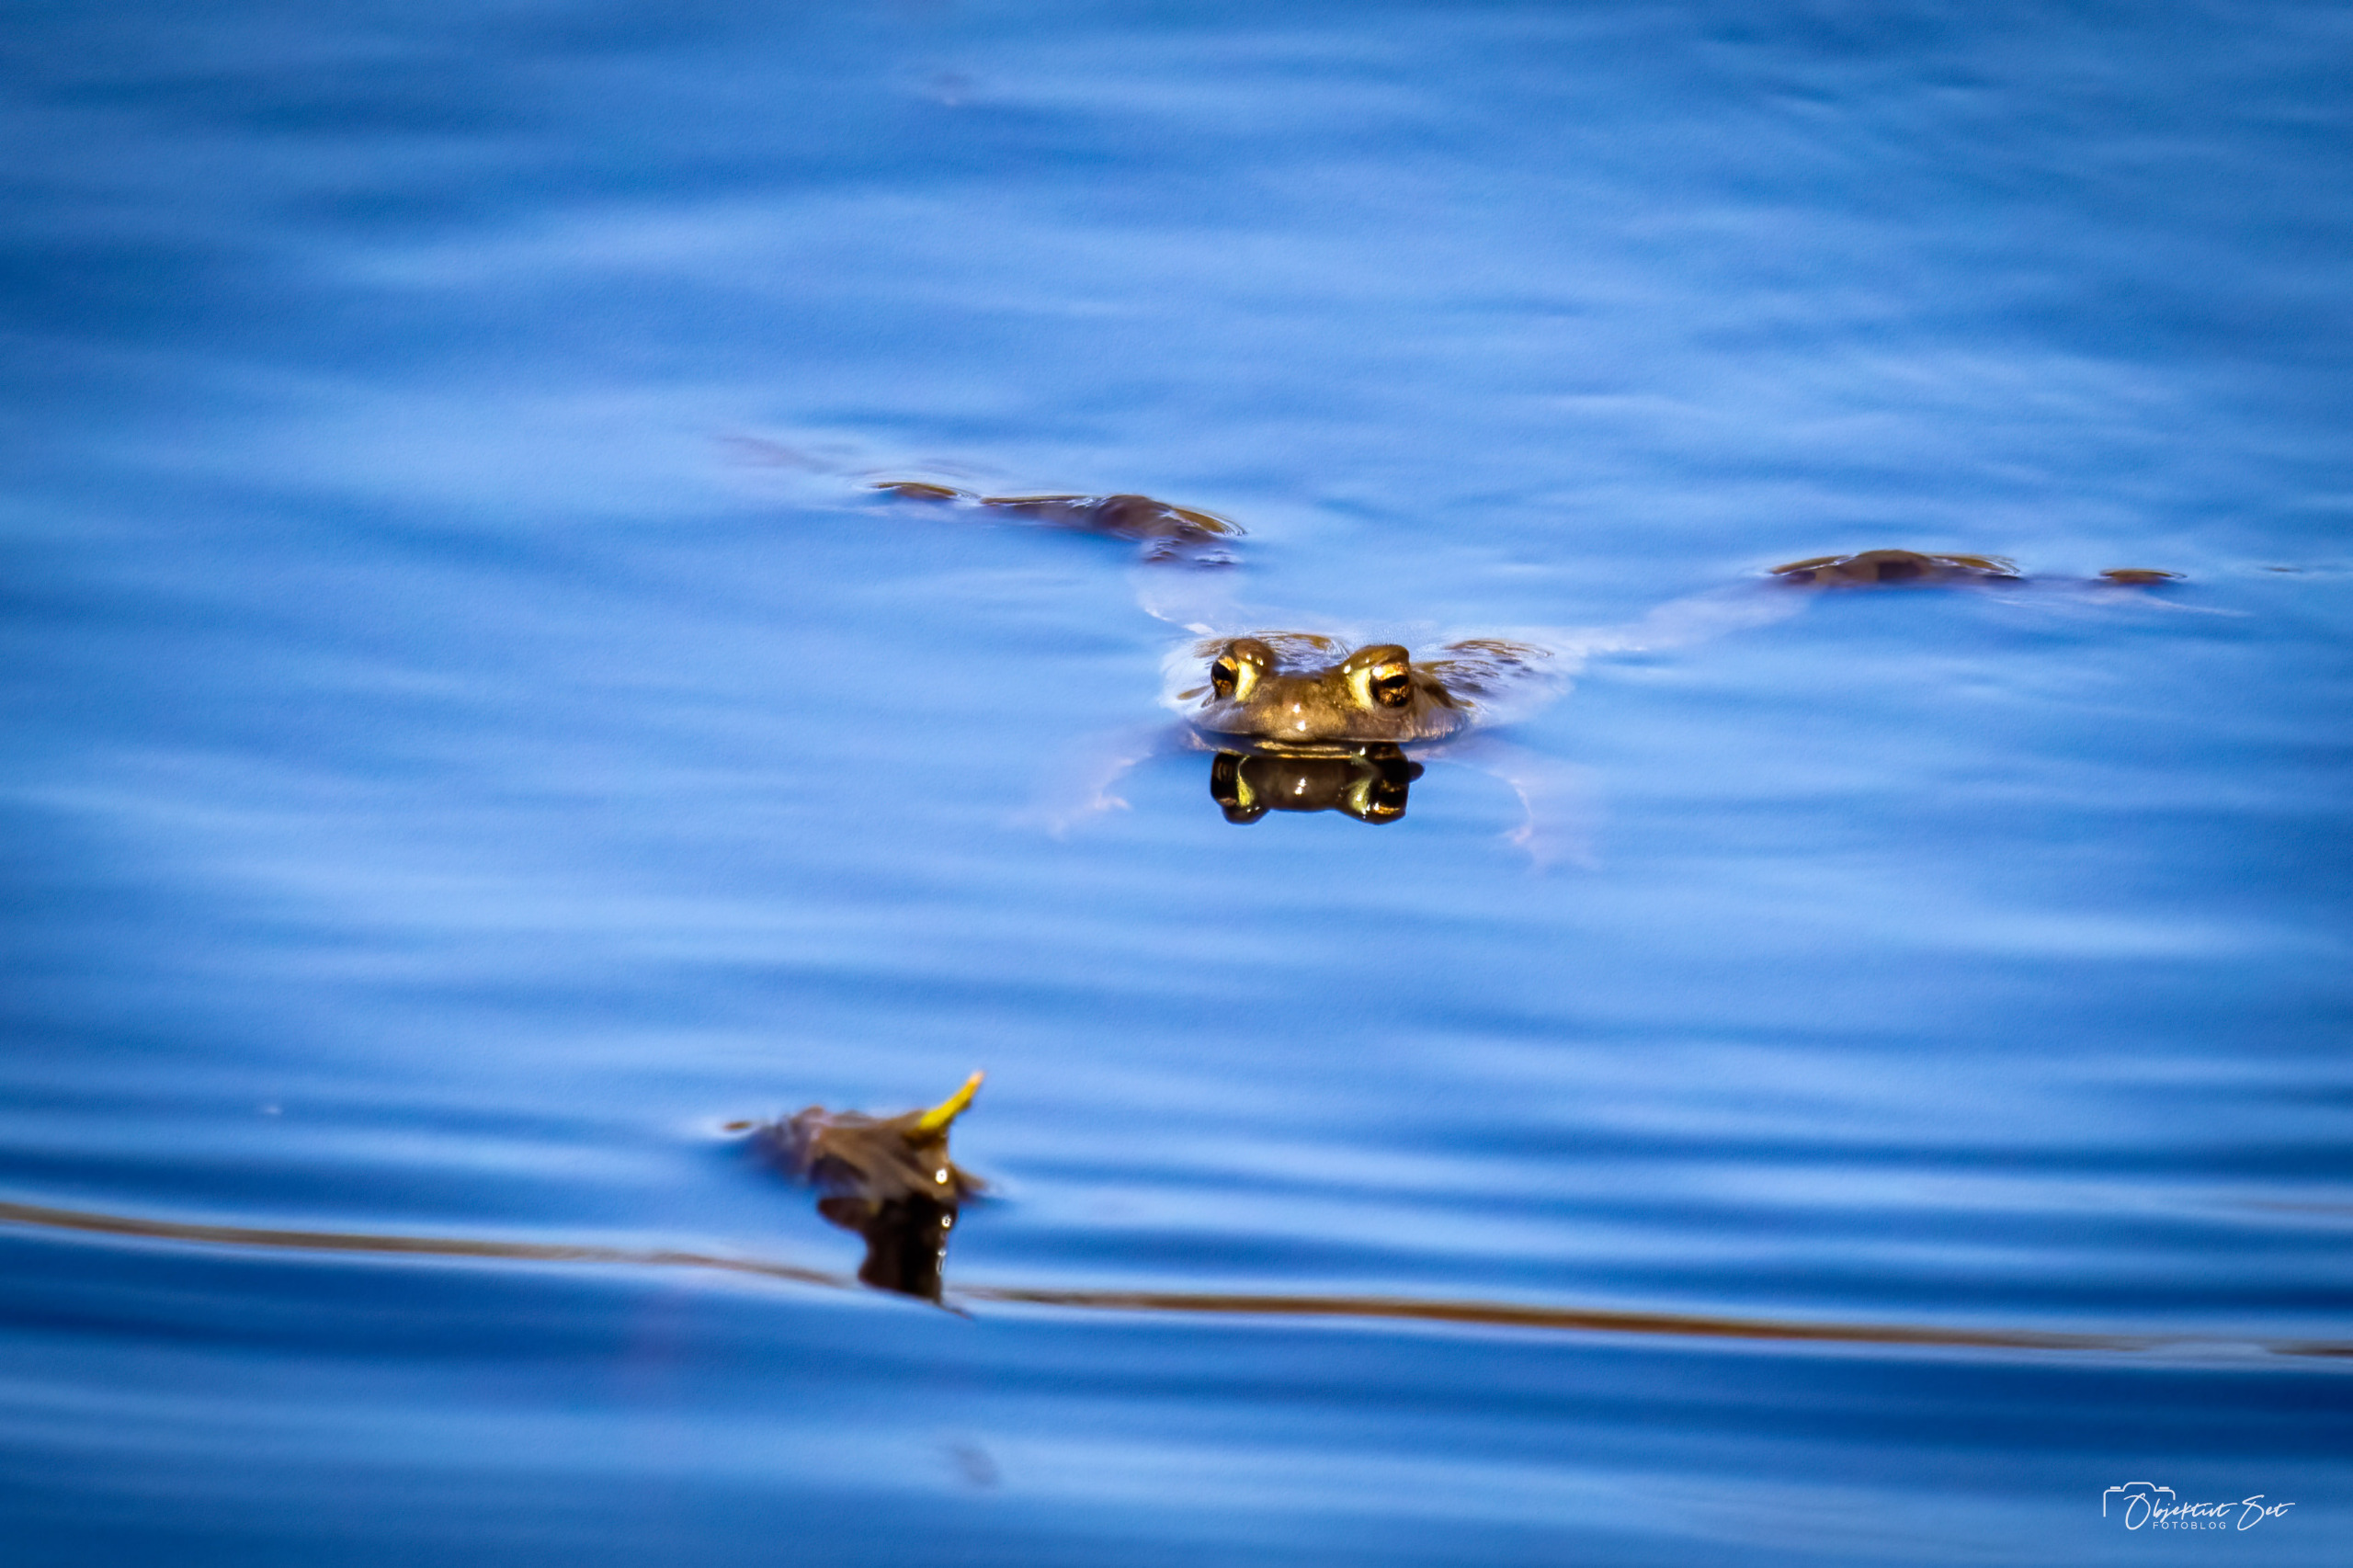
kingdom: Animalia
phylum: Chordata
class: Amphibia
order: Anura
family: Bufonidae
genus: Bufo
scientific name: Bufo bufo
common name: Skrubtudse
